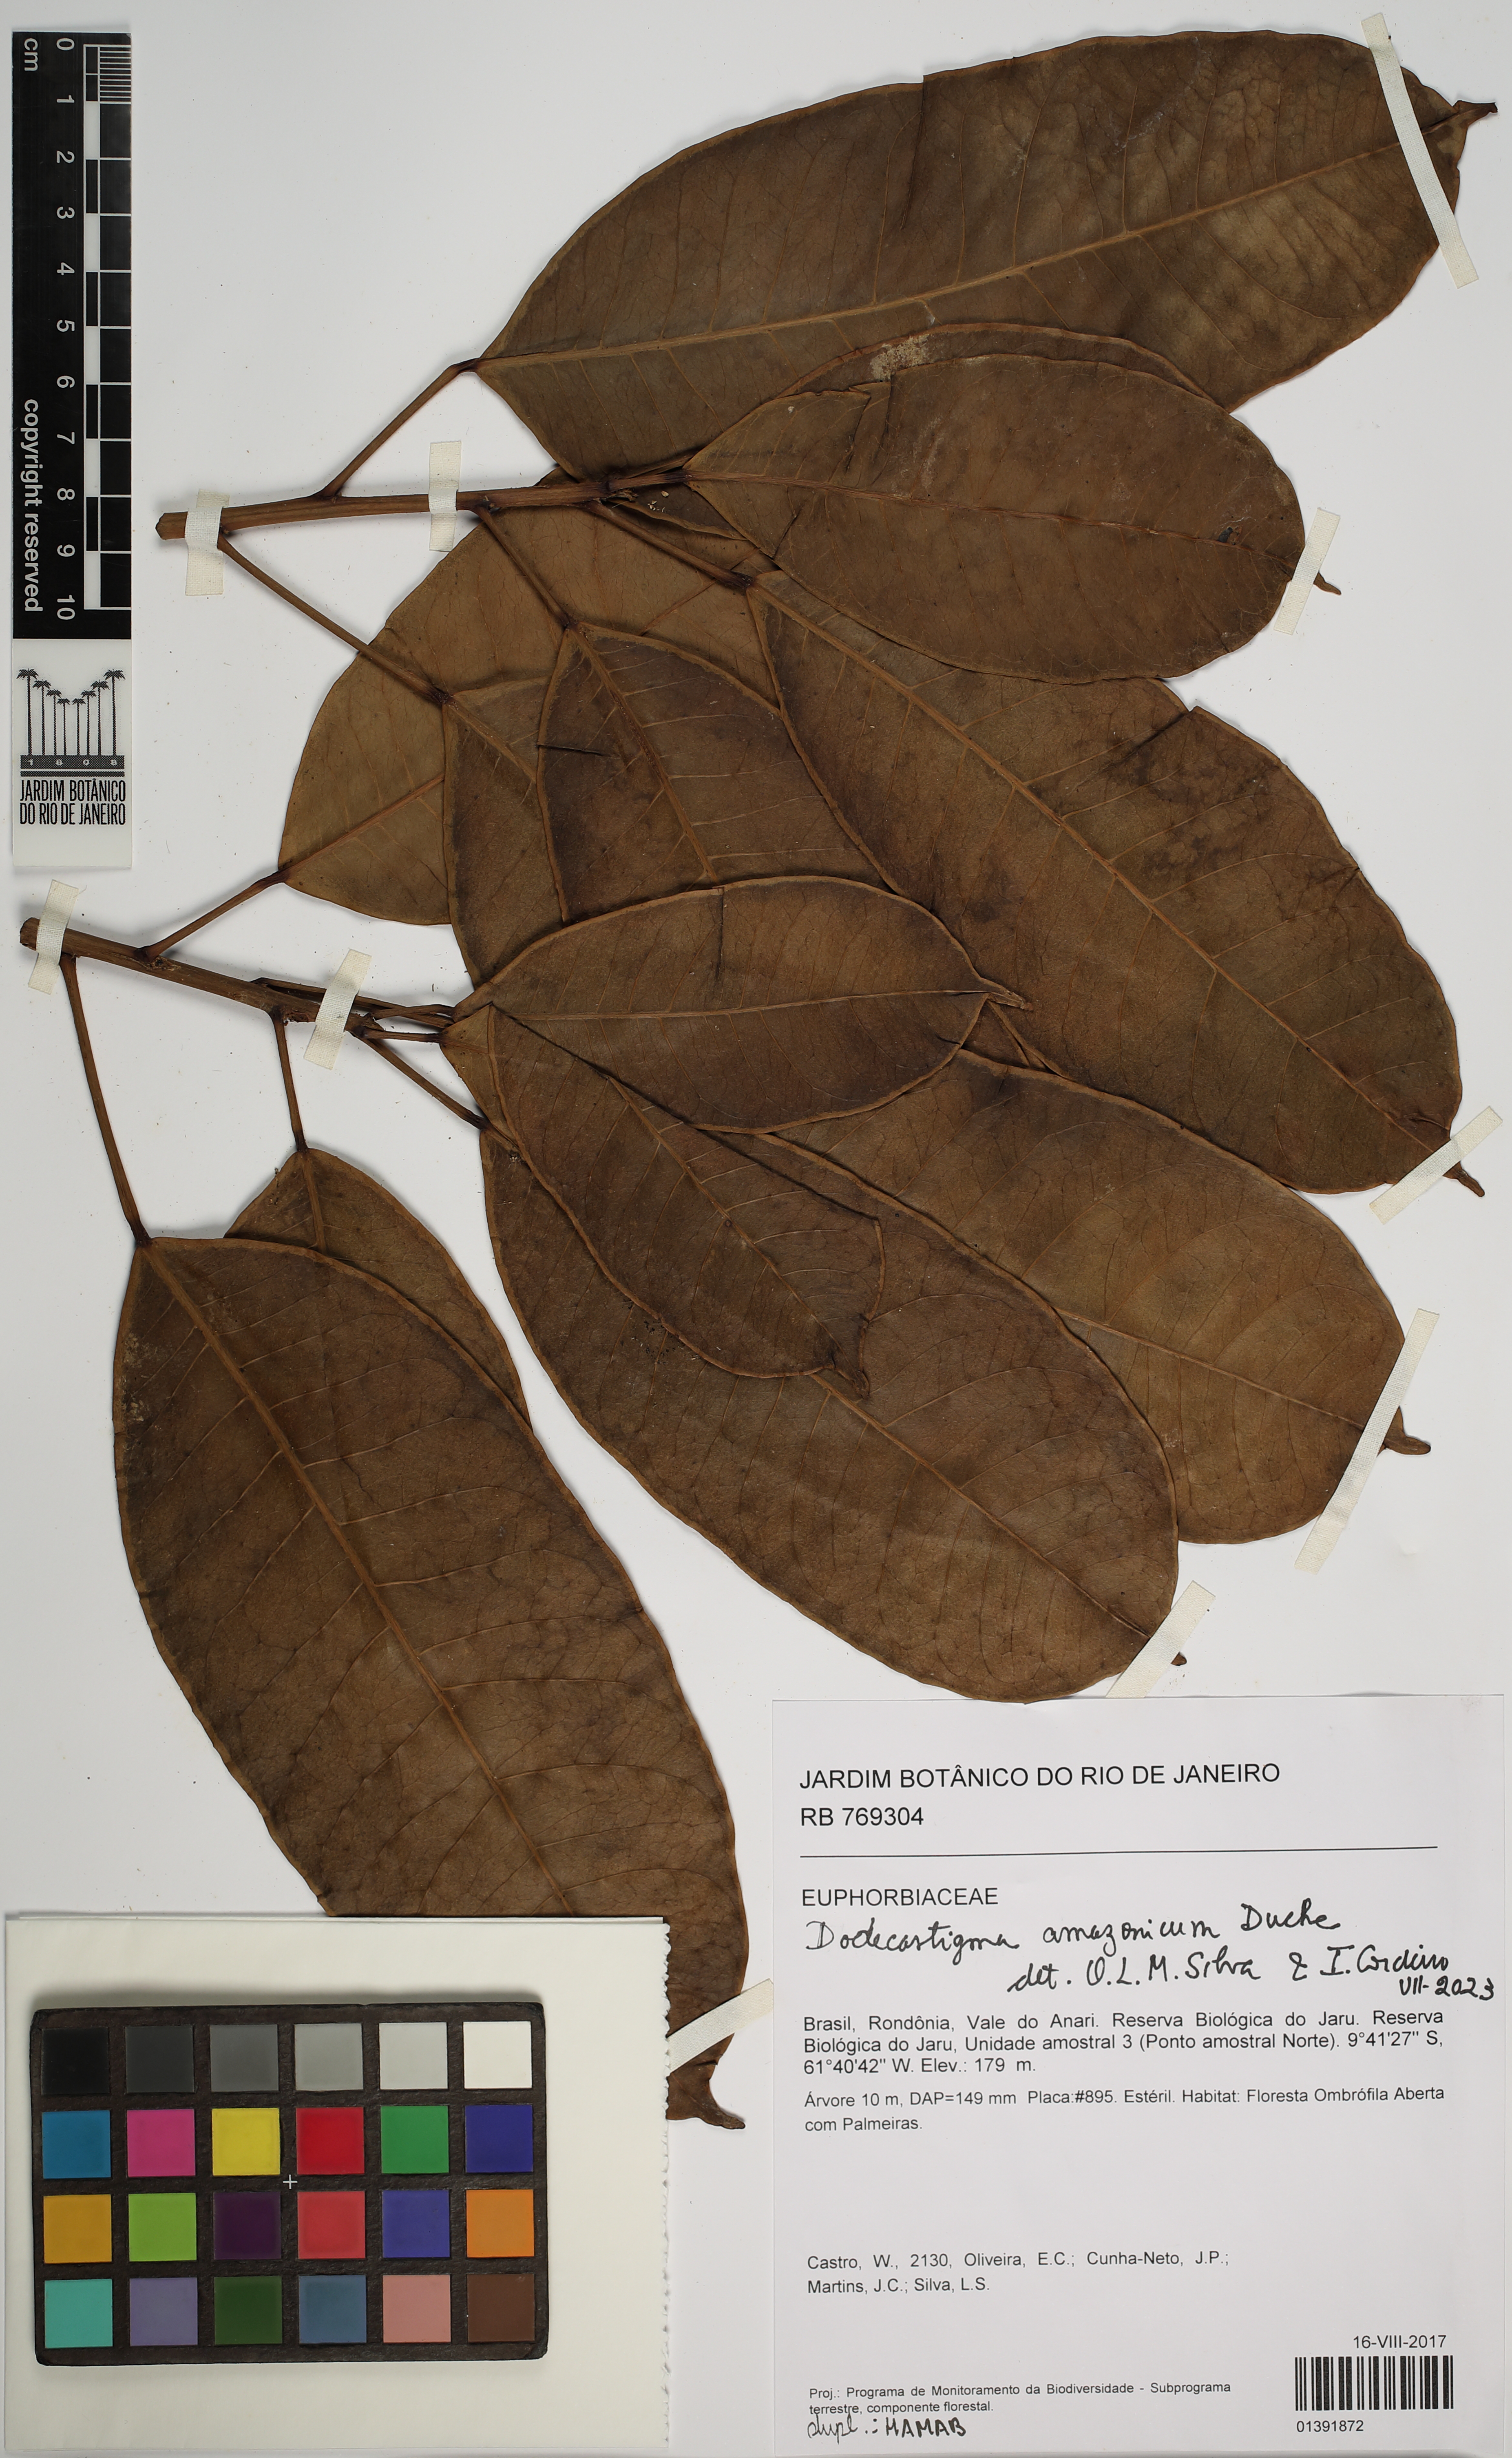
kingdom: Plantae
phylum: Tracheophyta
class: Magnoliopsida
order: Malpighiales
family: Euphorbiaceae
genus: Dodecastigma
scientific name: Dodecastigma amazonicum
